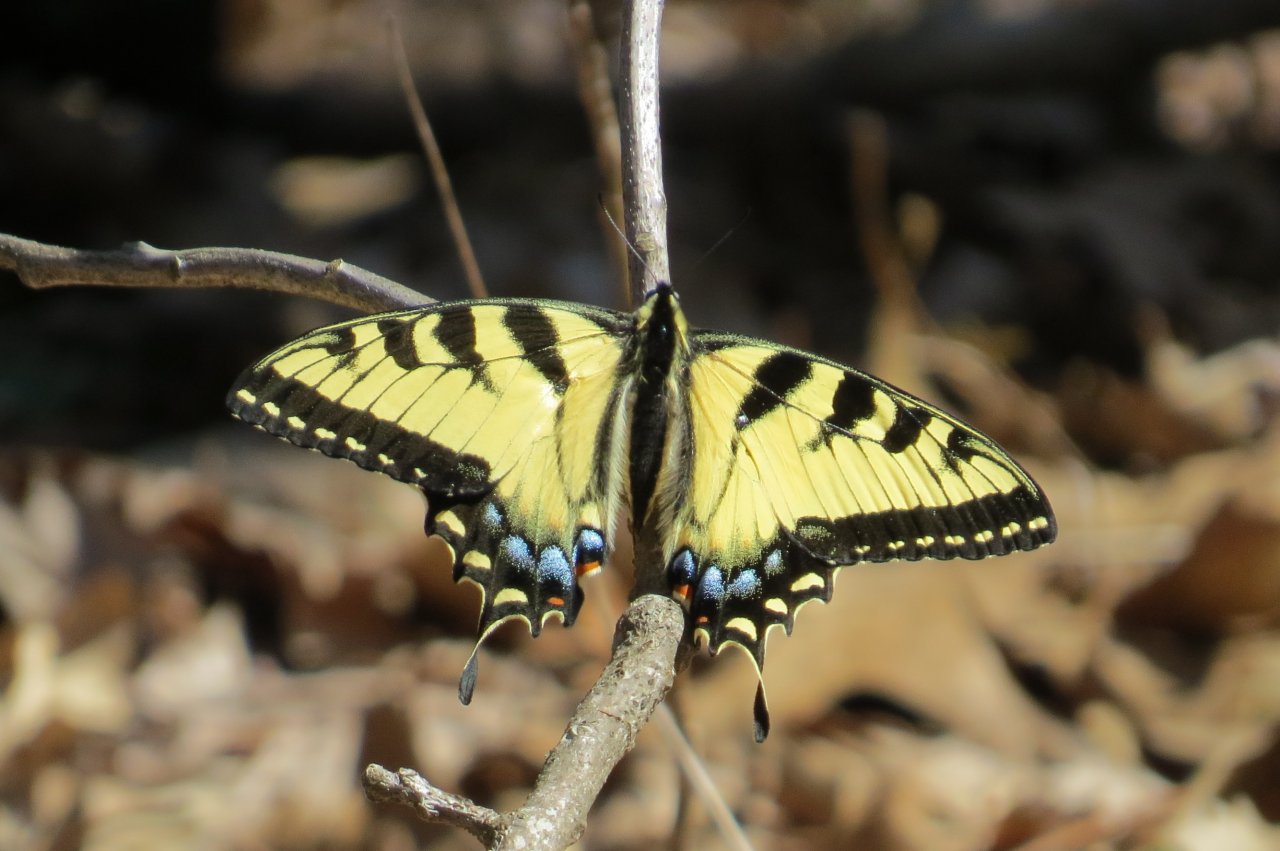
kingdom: Animalia
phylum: Arthropoda
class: Insecta
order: Lepidoptera
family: Papilionidae
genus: Pterourus
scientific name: Pterourus glaucus
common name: Eastern Tiger Swallowtail
